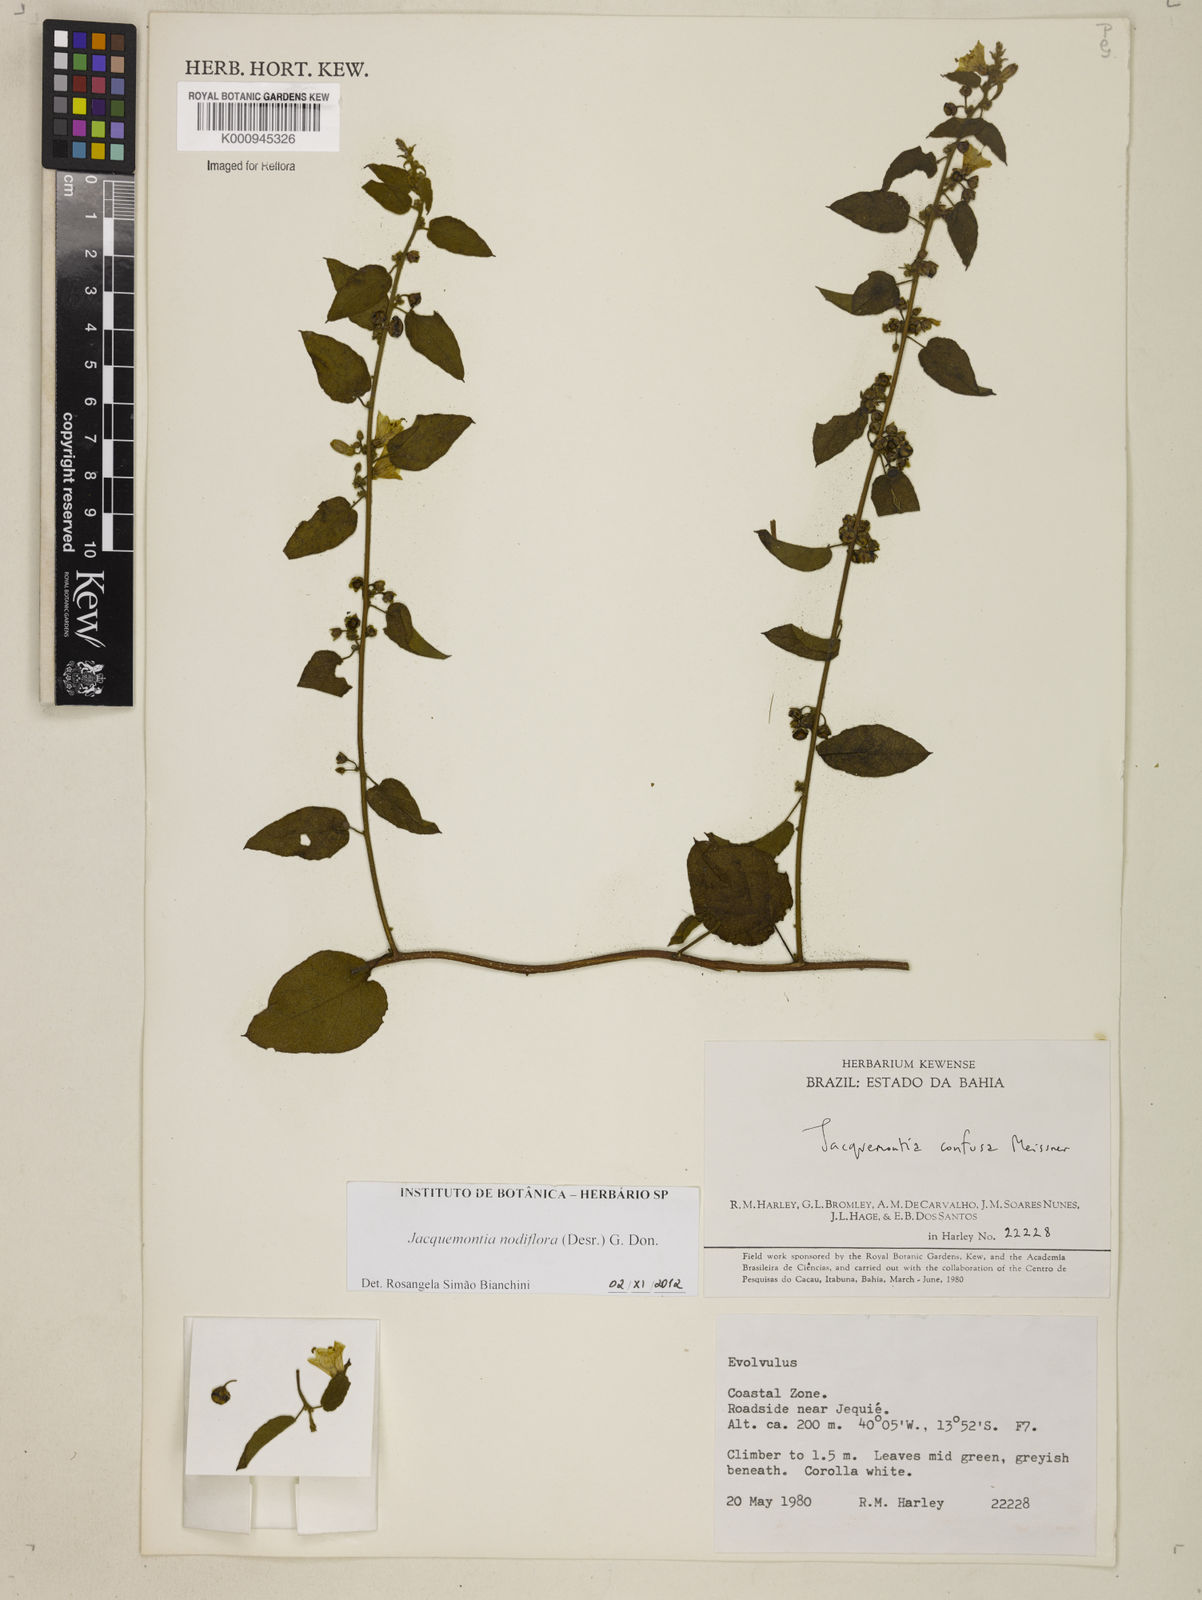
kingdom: Plantae
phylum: Tracheophyta
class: Magnoliopsida
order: Solanales
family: Convolvulaceae
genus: Jacquemontia
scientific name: Jacquemontia nodiflora
